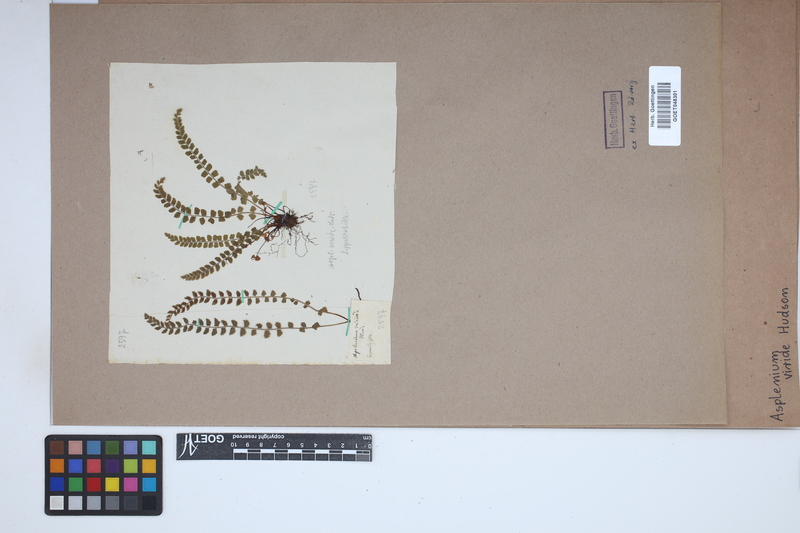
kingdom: Plantae
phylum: Tracheophyta
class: Polypodiopsida
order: Polypodiales
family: Aspleniaceae
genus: Asplenium
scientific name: Asplenium viride
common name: Green spleenwort
